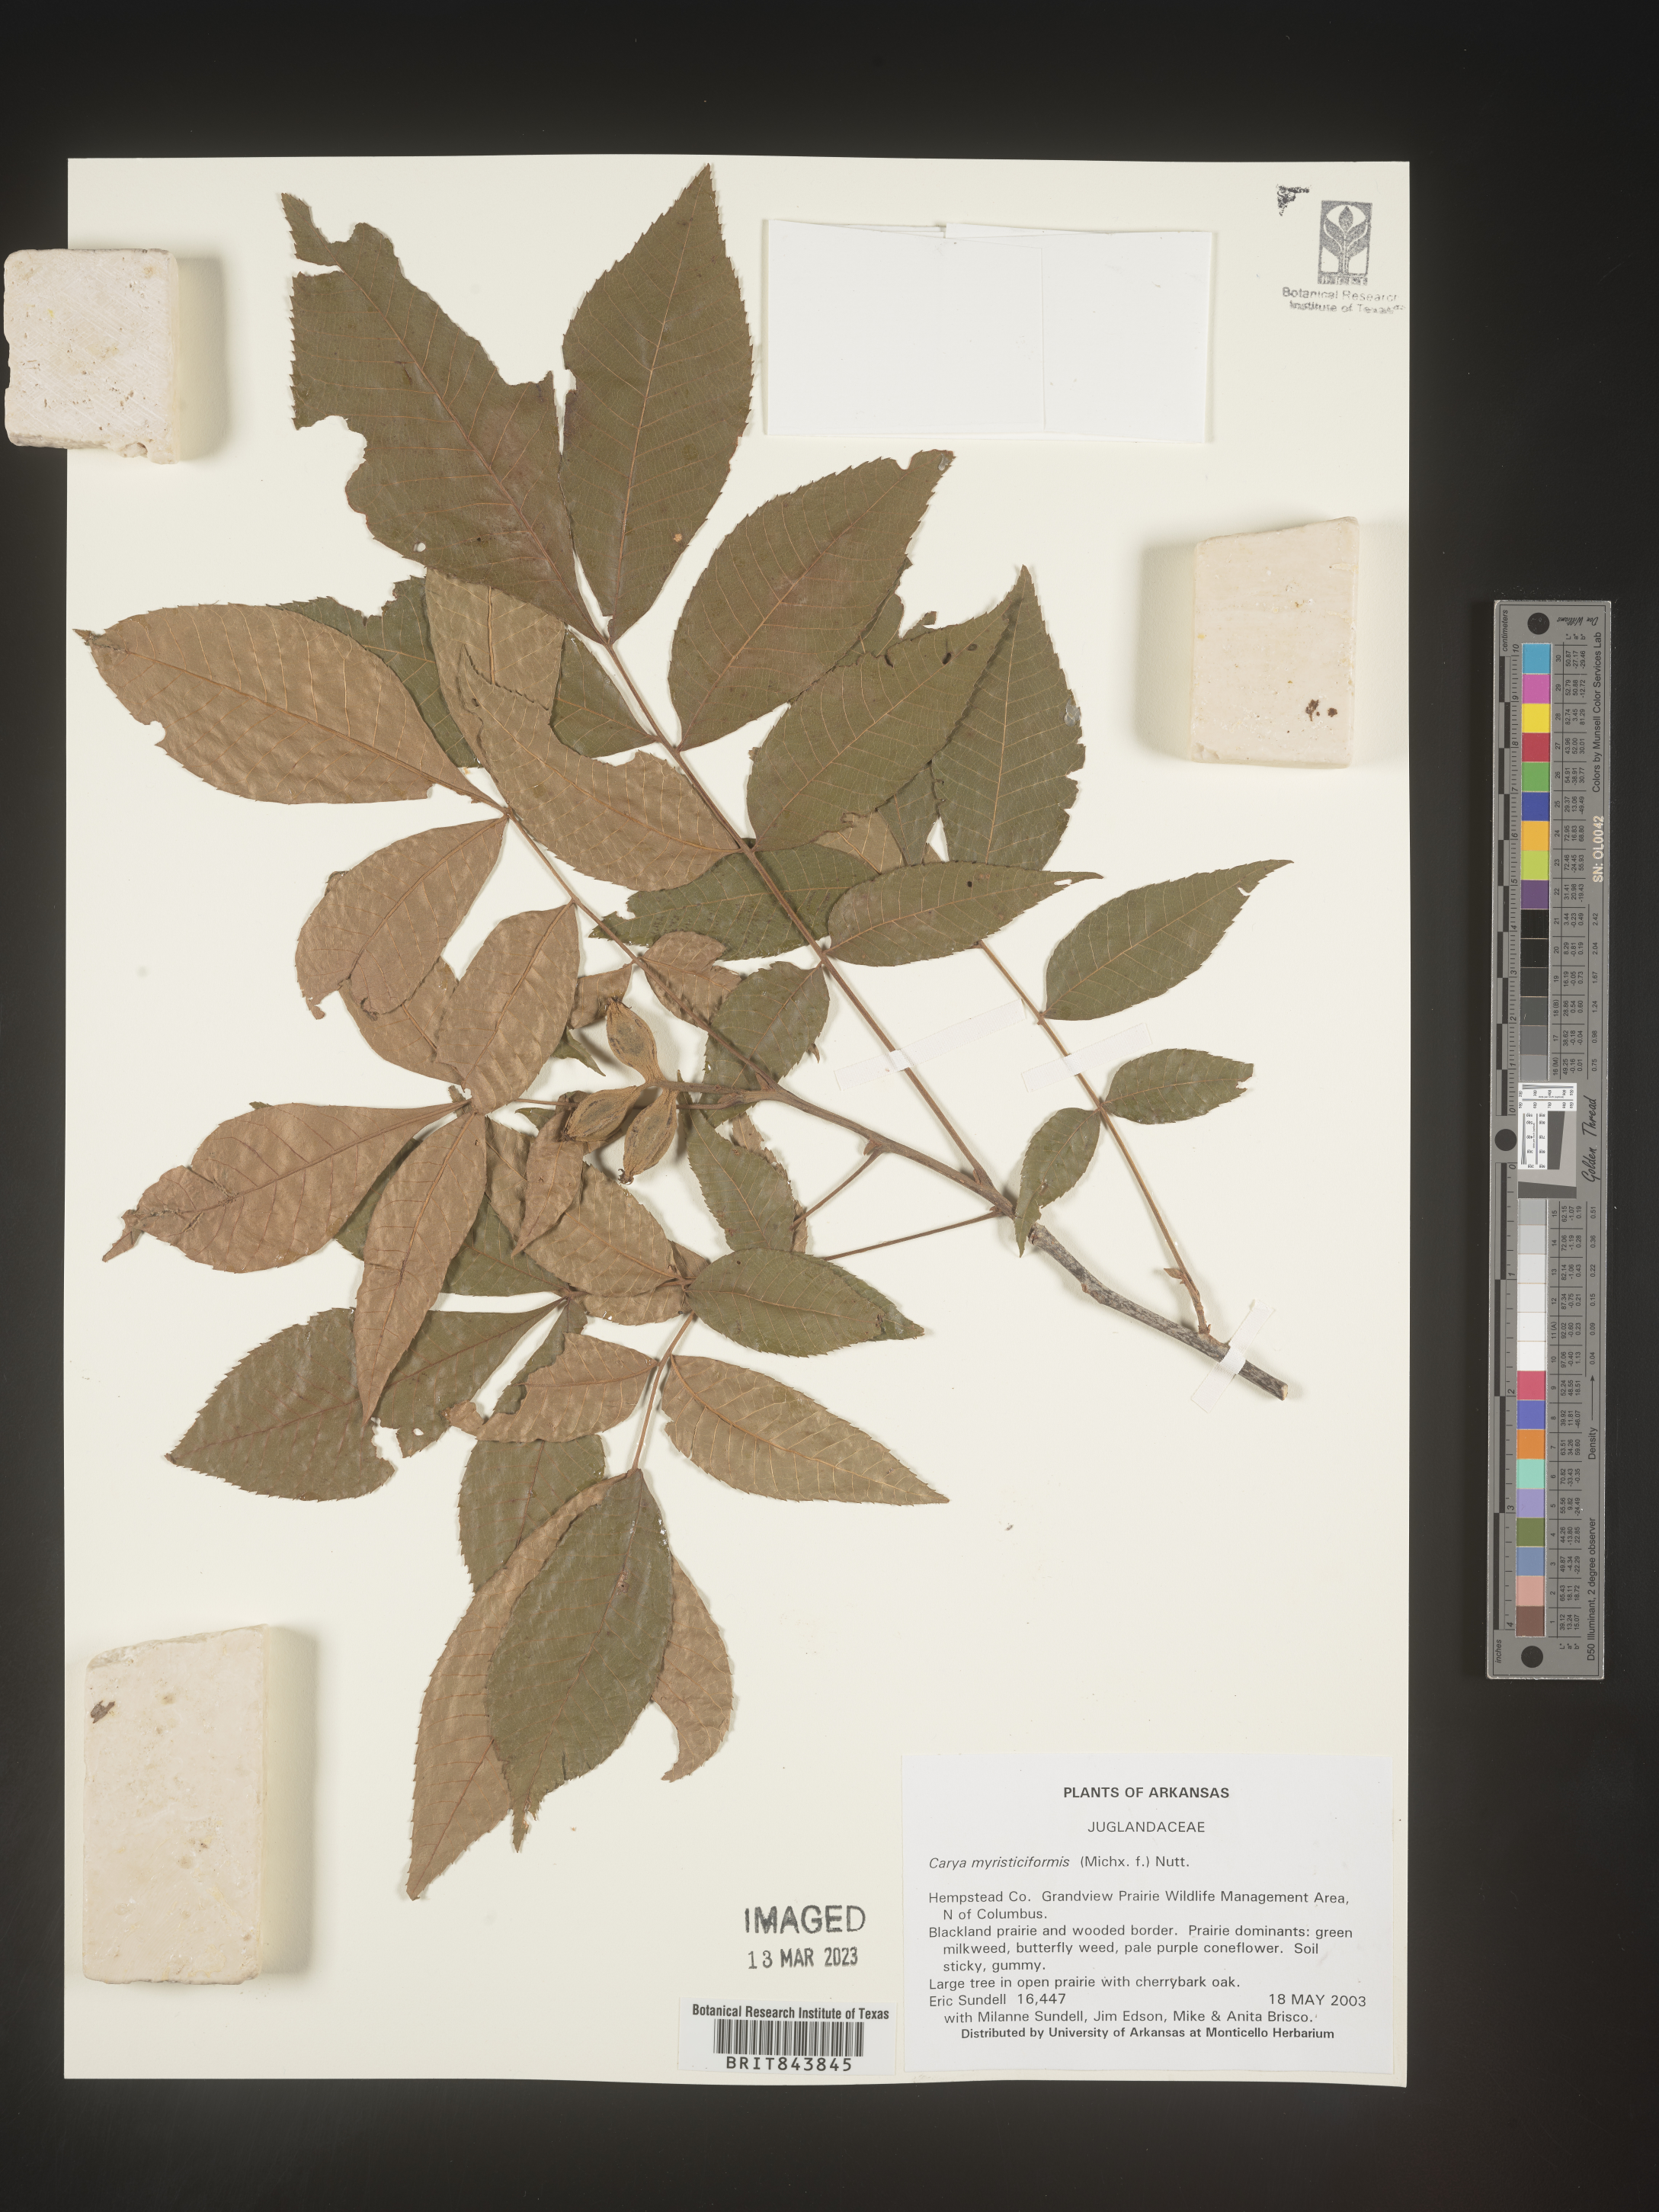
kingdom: Plantae
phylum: Tracheophyta
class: Magnoliopsida
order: Fagales
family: Juglandaceae
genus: Carya
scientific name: Carya myristiciformis
